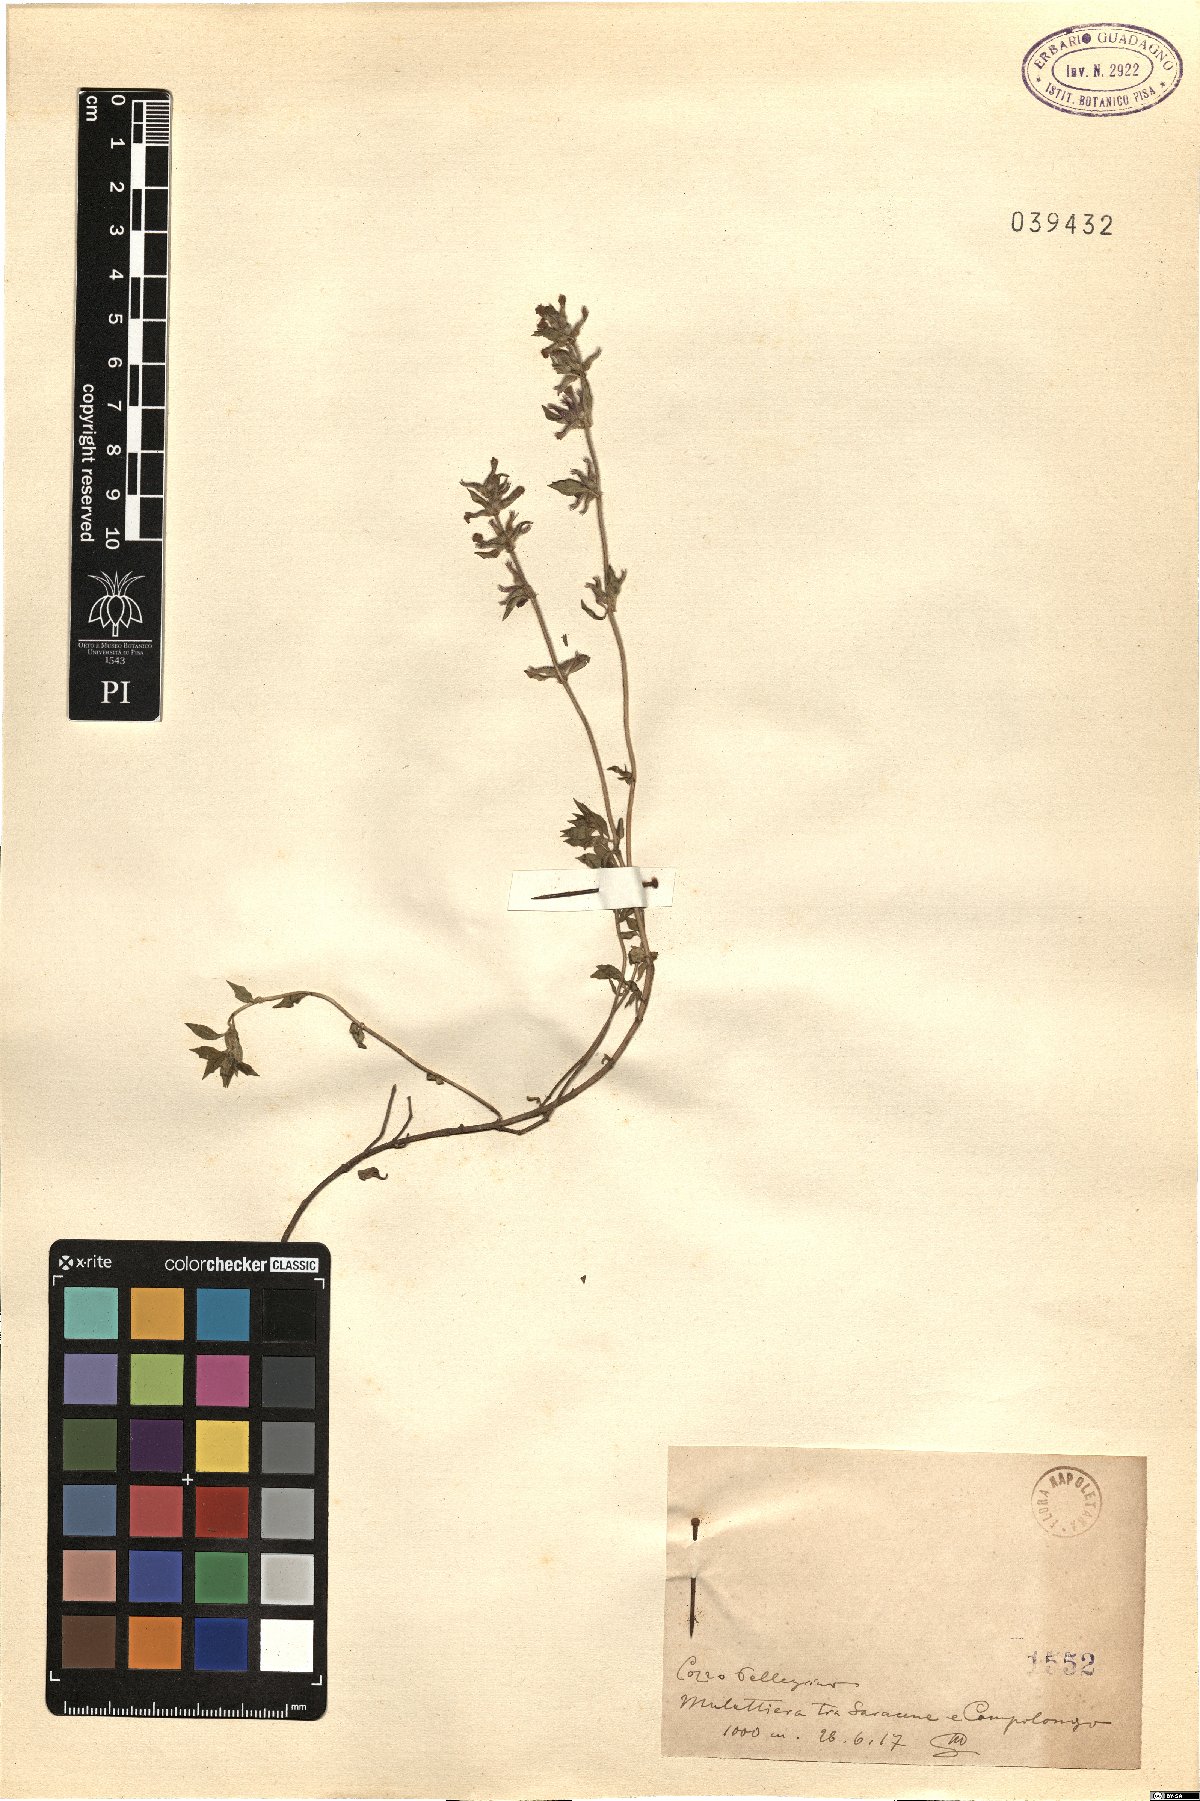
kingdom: Plantae
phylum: Tracheophyta
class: Magnoliopsida
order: Lamiales
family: Lamiaceae
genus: Calamintha
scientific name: Calamintha
